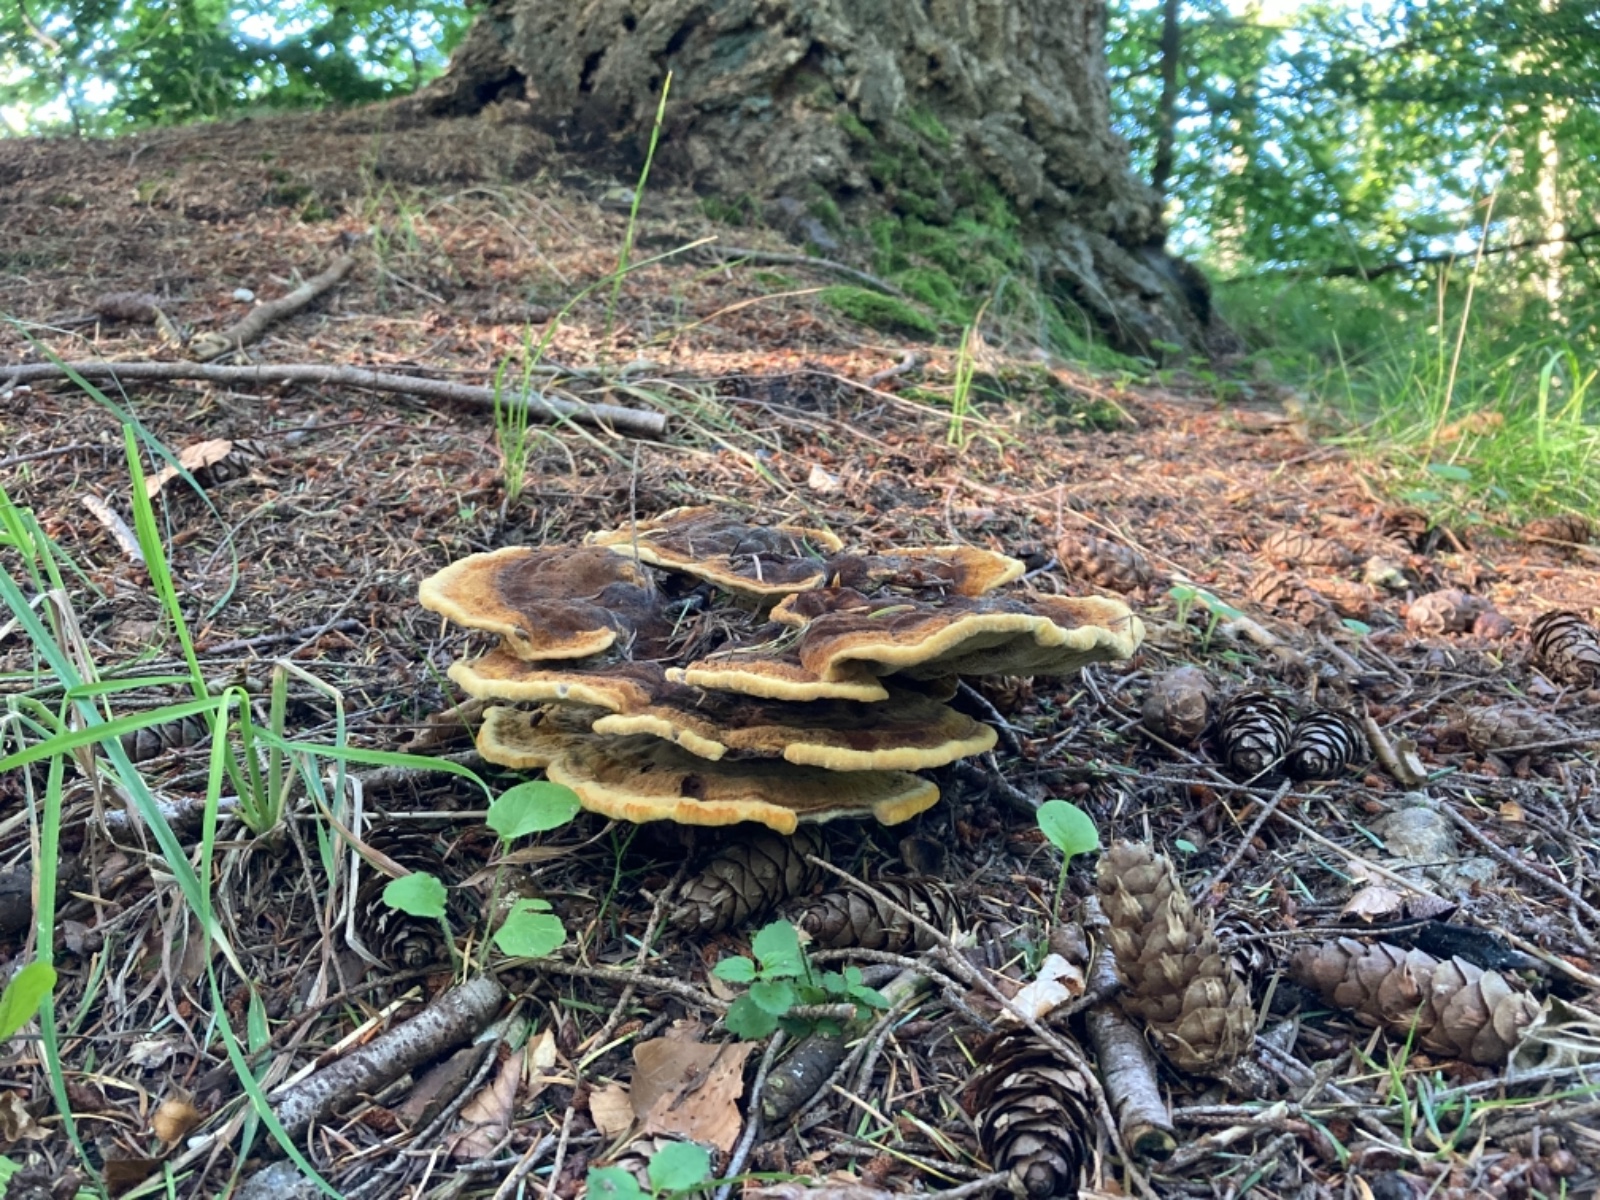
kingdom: Fungi
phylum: Basidiomycota
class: Agaricomycetes
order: Polyporales
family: Laetiporaceae
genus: Phaeolus
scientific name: Phaeolus schweinitzii
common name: brunporesvamp
